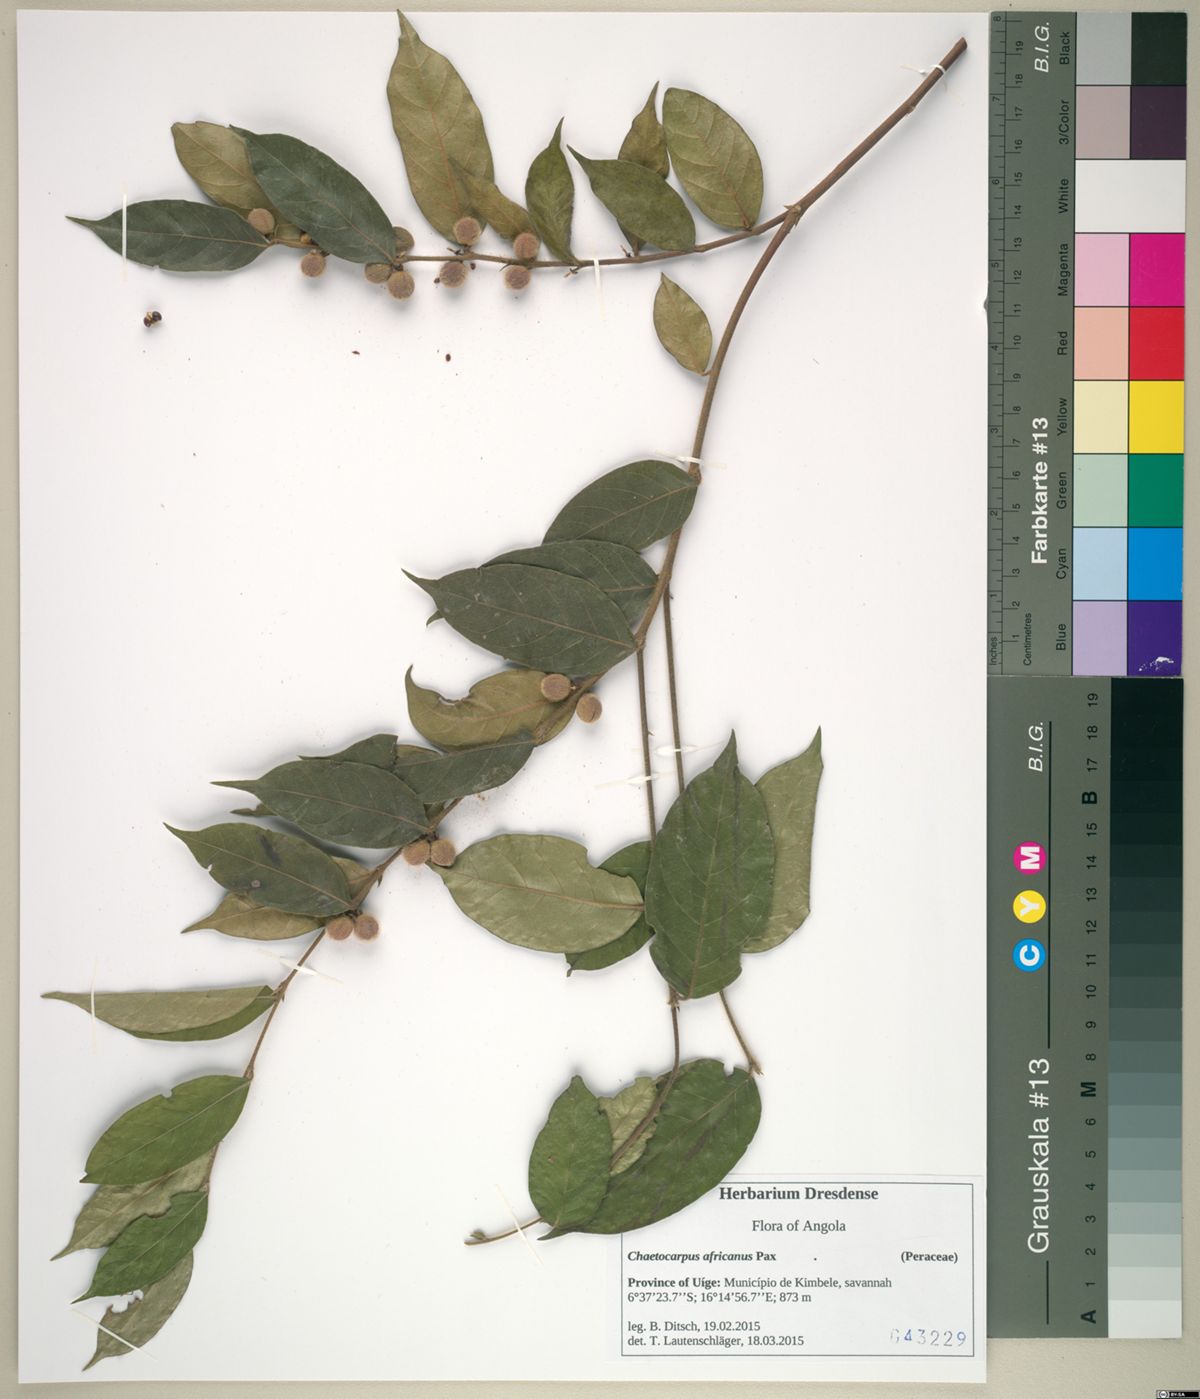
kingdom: Plantae
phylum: Tracheophyta
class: Magnoliopsida
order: Malpighiales
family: Peraceae
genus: Chaetocarpus
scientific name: Chaetocarpus africanus
